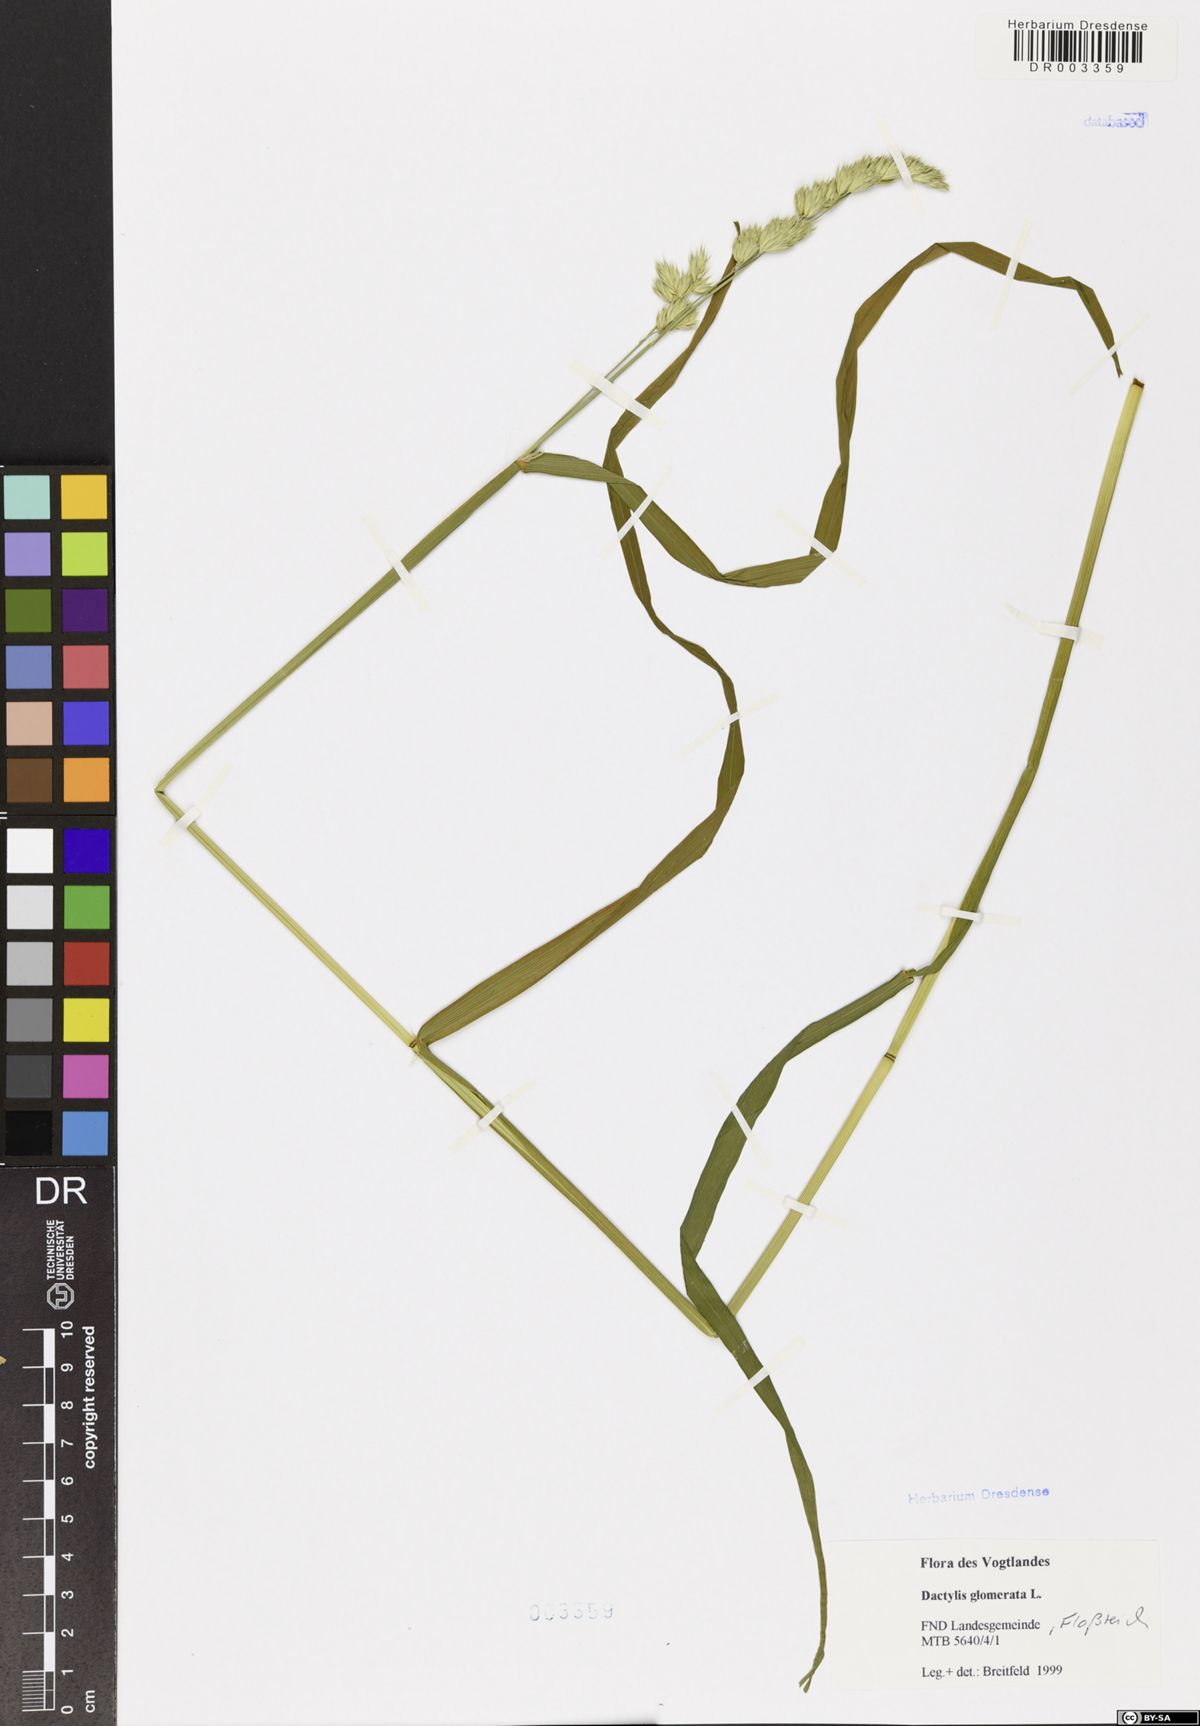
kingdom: Plantae
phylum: Tracheophyta
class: Liliopsida
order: Poales
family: Poaceae
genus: Dactylis
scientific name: Dactylis glomerata
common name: Orchardgrass
